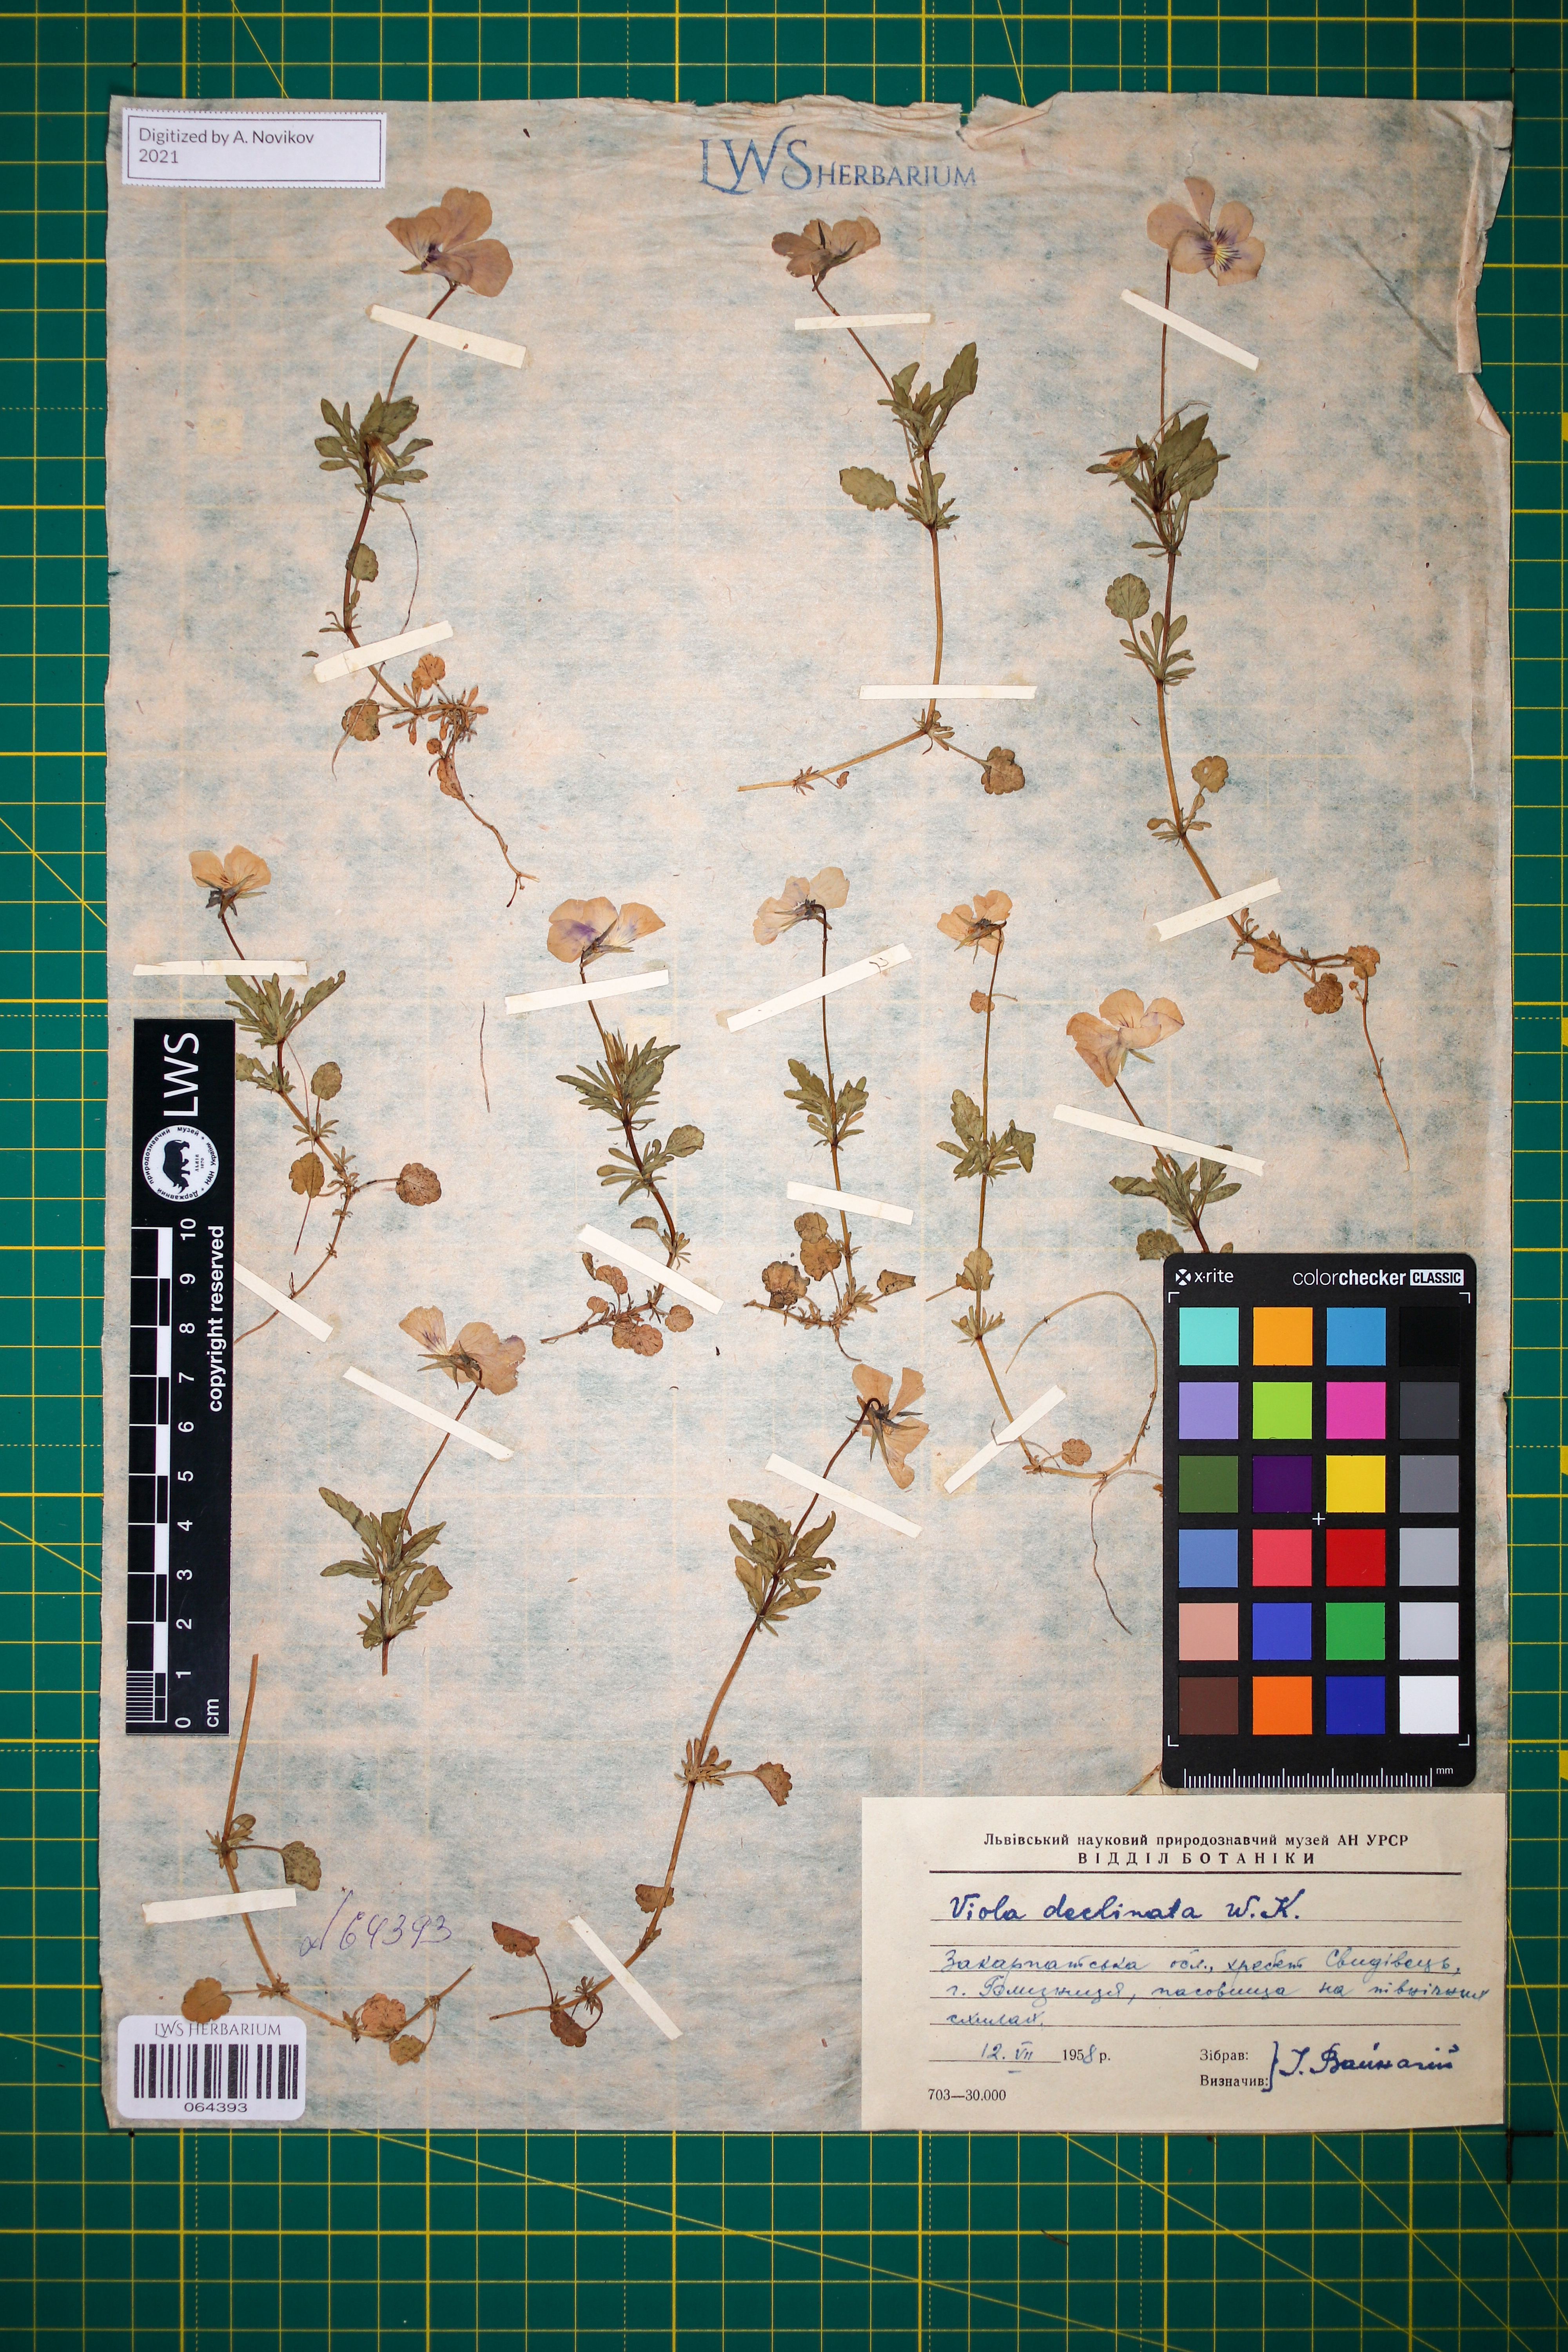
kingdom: Plantae
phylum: Tracheophyta
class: Magnoliopsida
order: Malpighiales
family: Violaceae
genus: Viola
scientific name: Viola declinata
